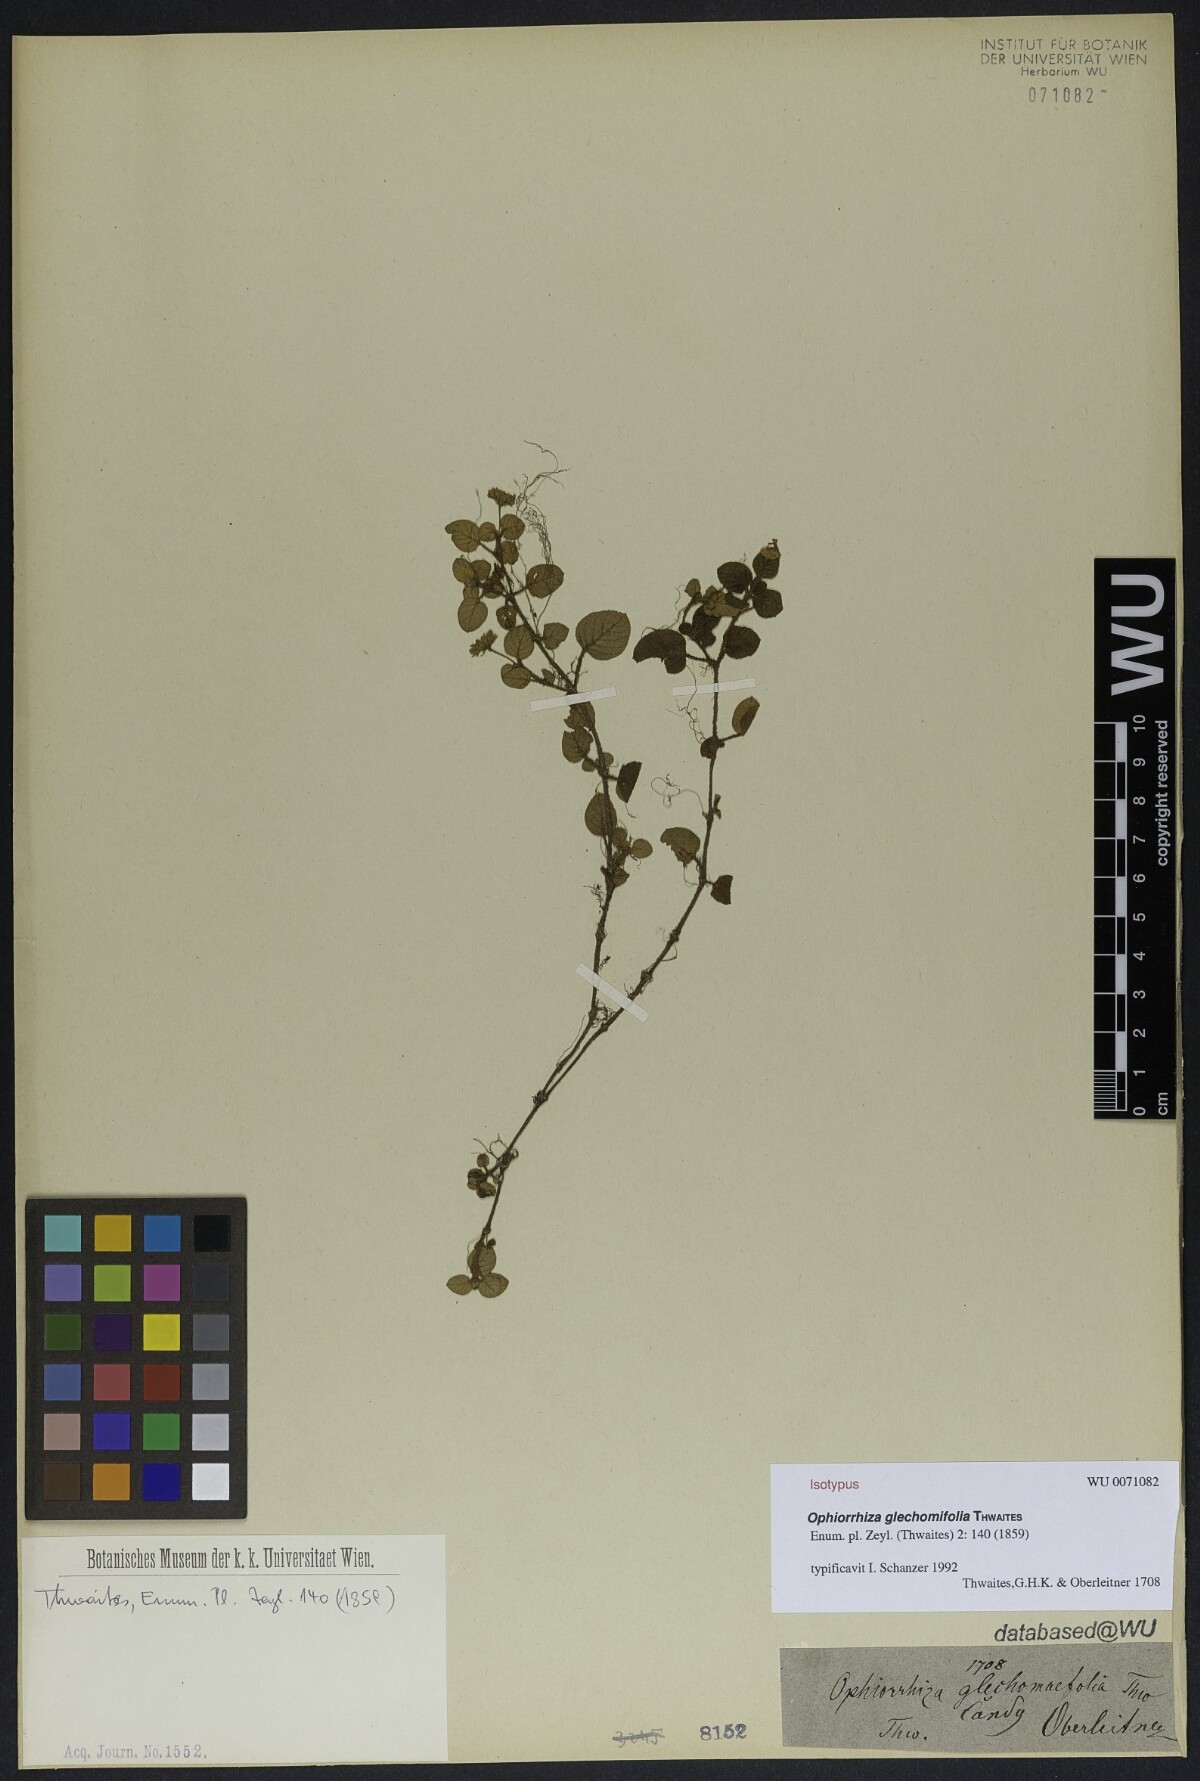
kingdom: Plantae
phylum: Tracheophyta
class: Magnoliopsida
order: Gentianales
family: Rubiaceae
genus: Ophiorrhiza
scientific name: Ophiorrhiza glechomifolia
